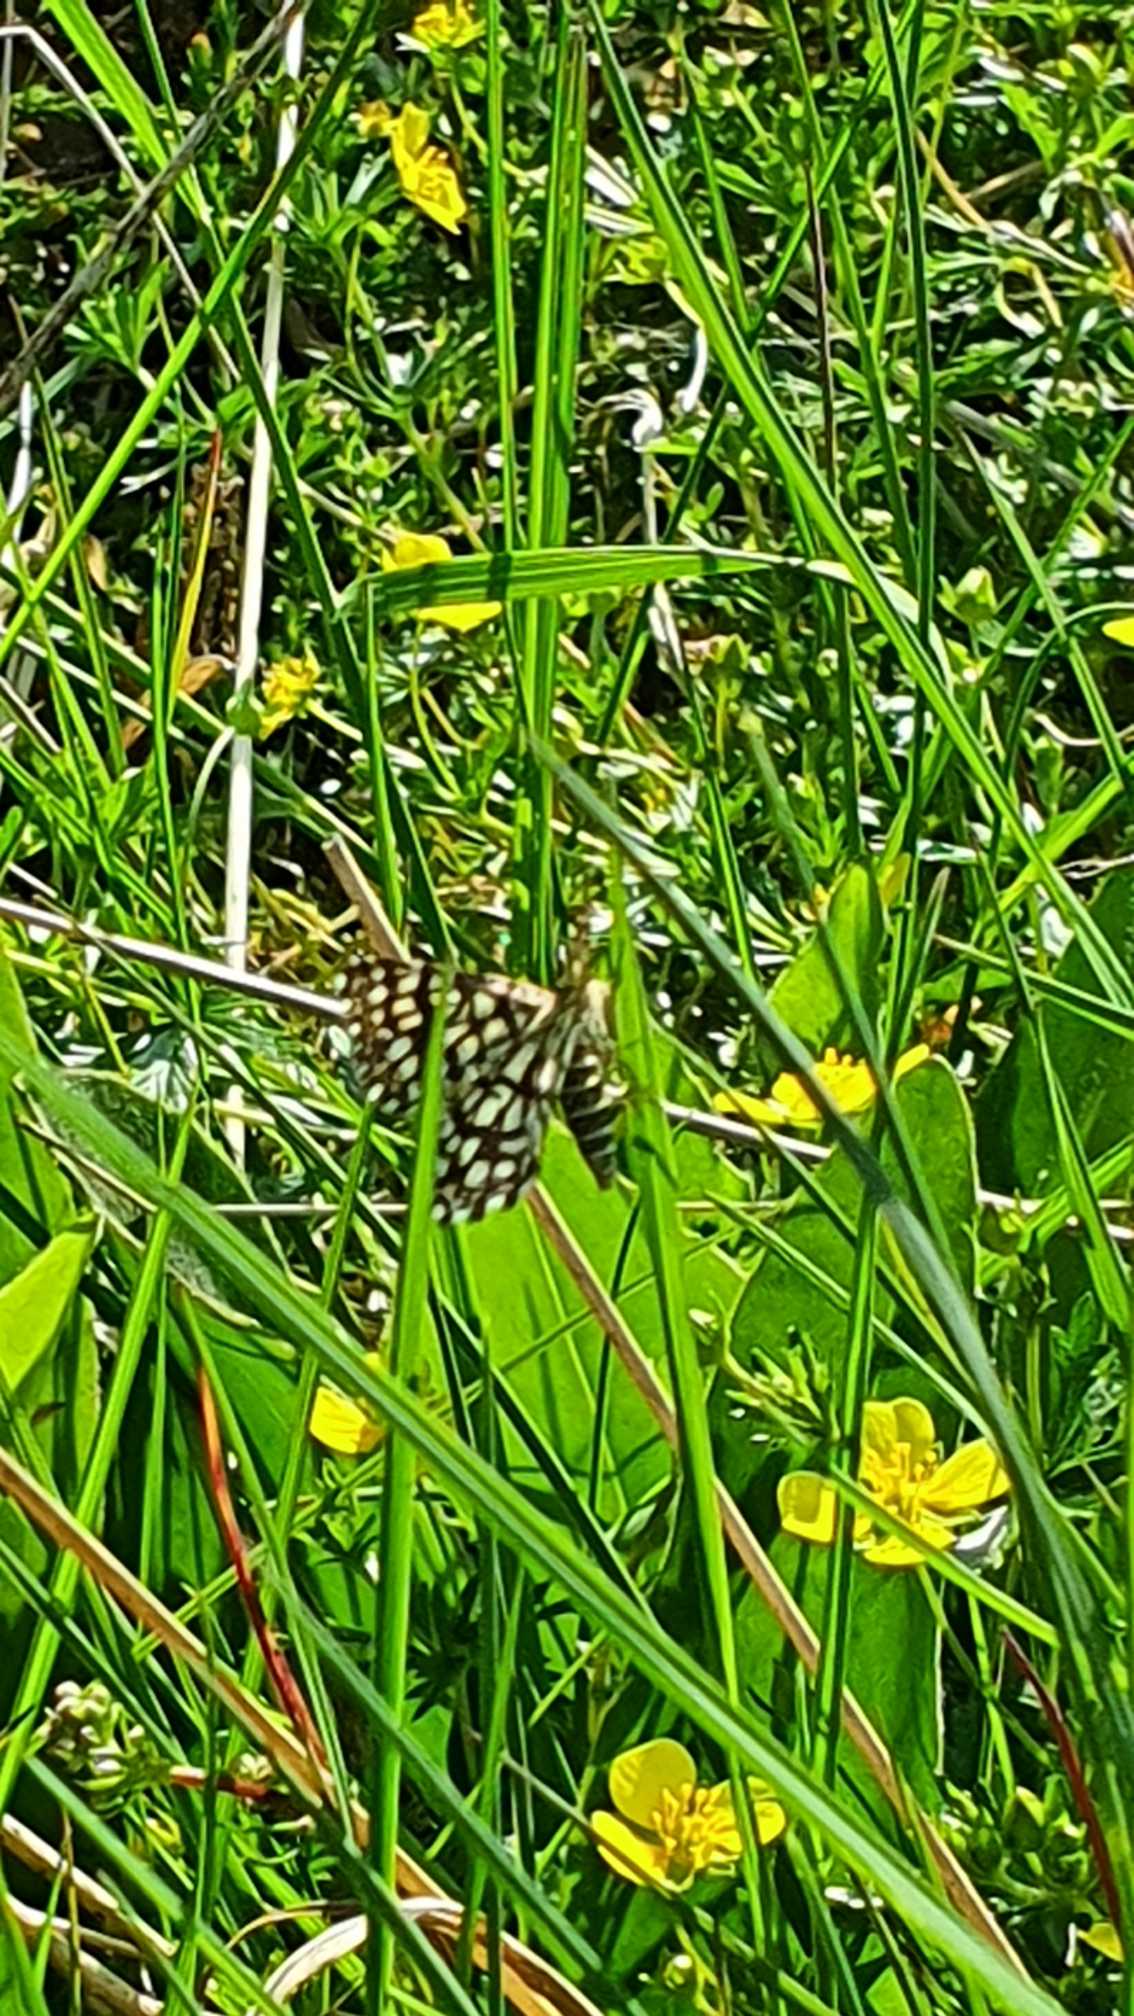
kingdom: Animalia
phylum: Arthropoda
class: Insecta
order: Lepidoptera
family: Geometridae
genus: Chiasmia
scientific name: Chiasmia clathrata
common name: Kløvermåler
